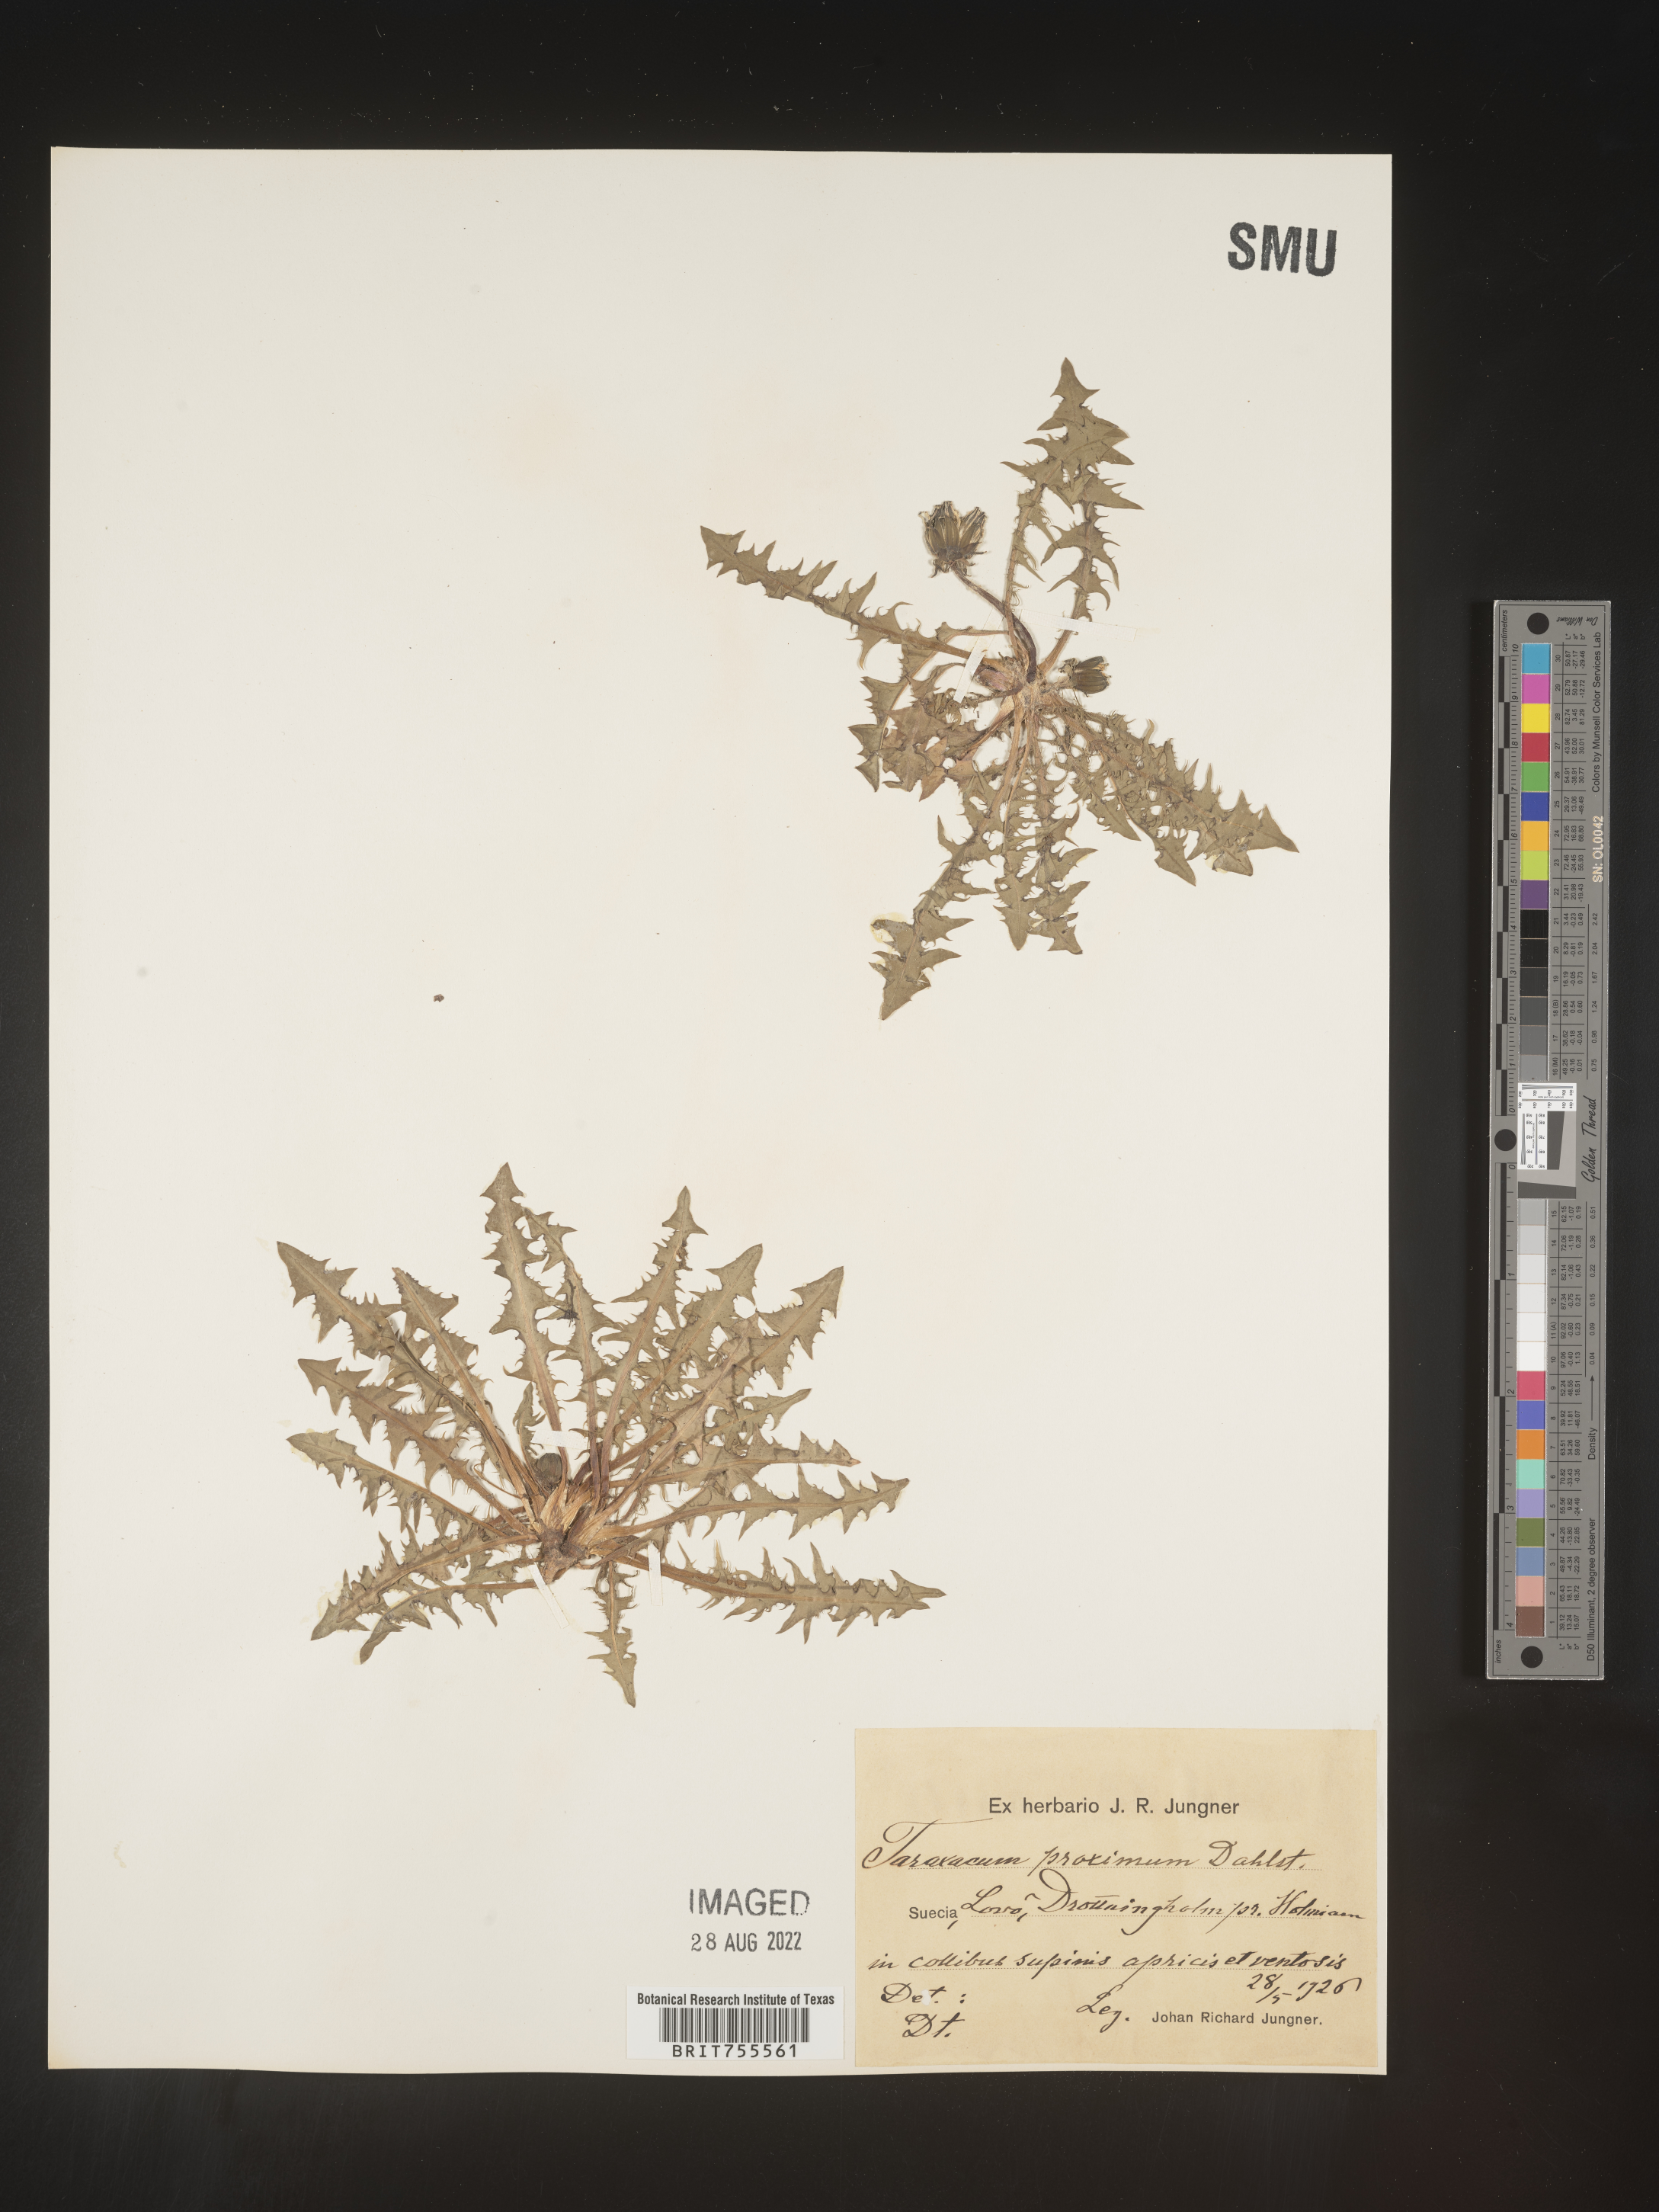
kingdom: Plantae
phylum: Tracheophyta
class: Magnoliopsida
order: Asterales
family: Asteraceae
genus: Taraxacum
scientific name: Taraxacum
